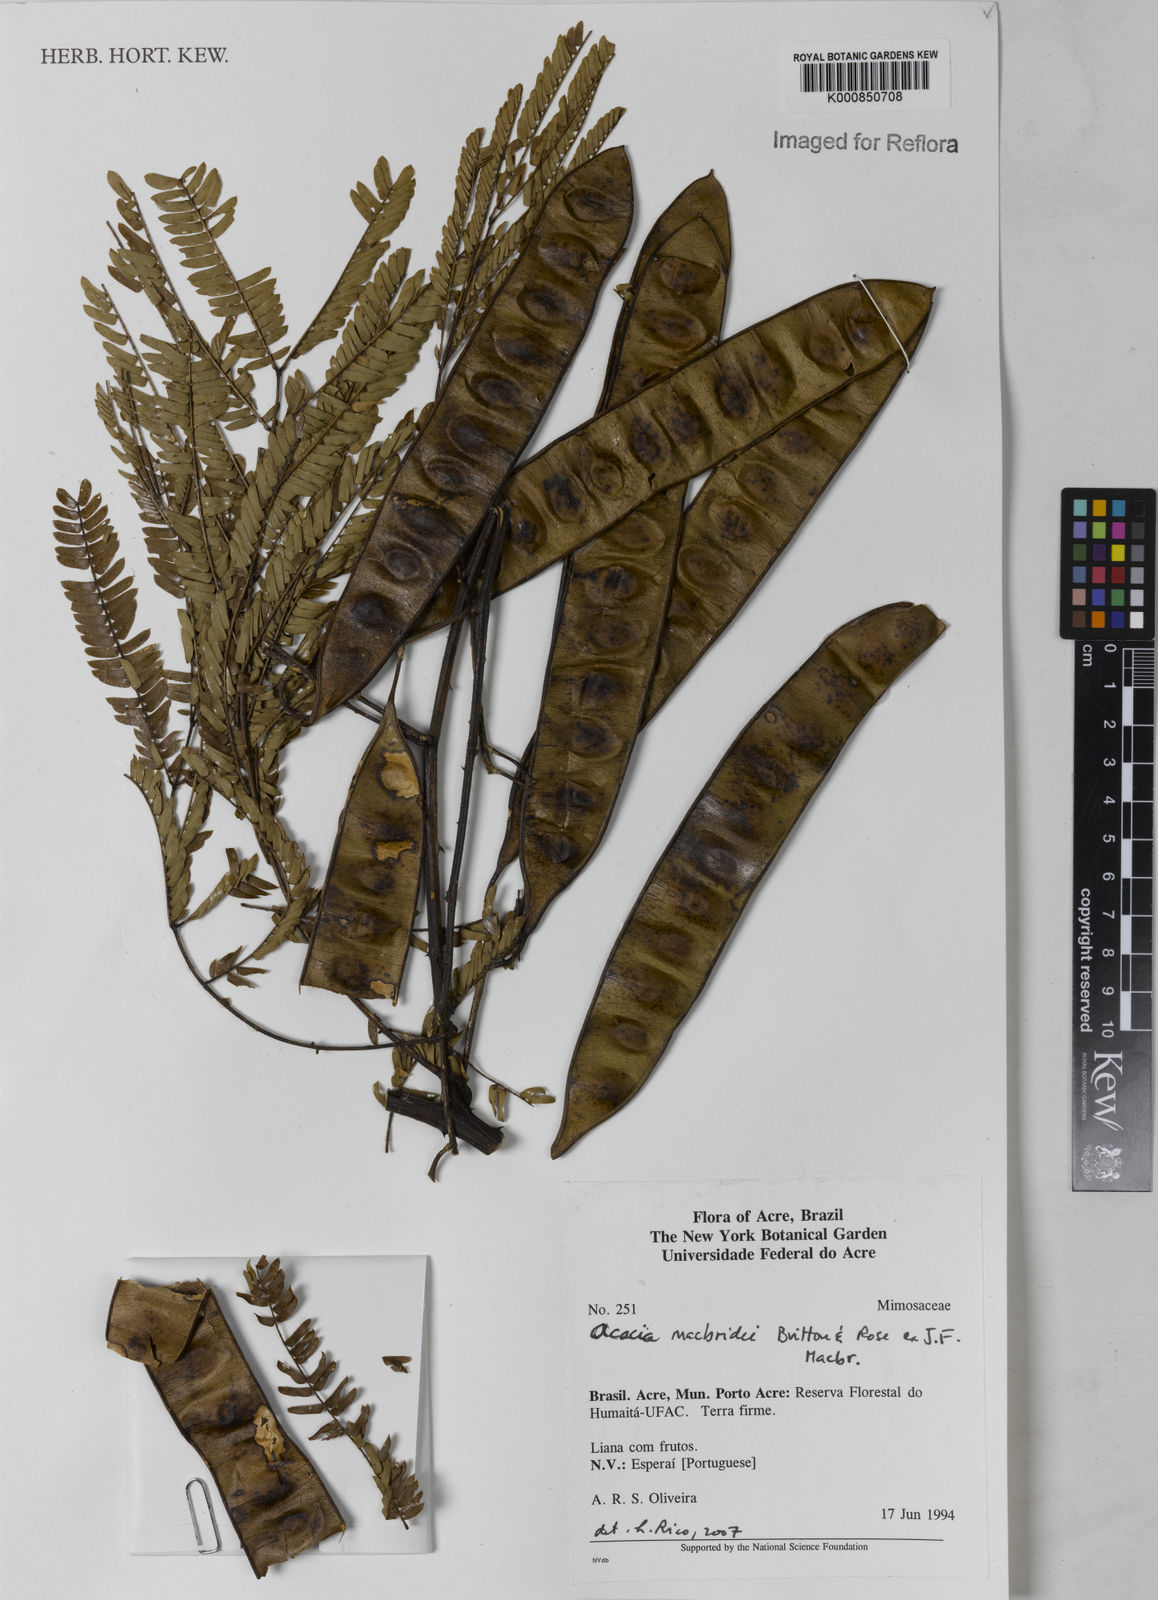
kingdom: Plantae
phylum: Tracheophyta
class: Magnoliopsida
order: Fabales
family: Fabaceae
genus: Senegalia
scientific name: Senegalia macbridei
